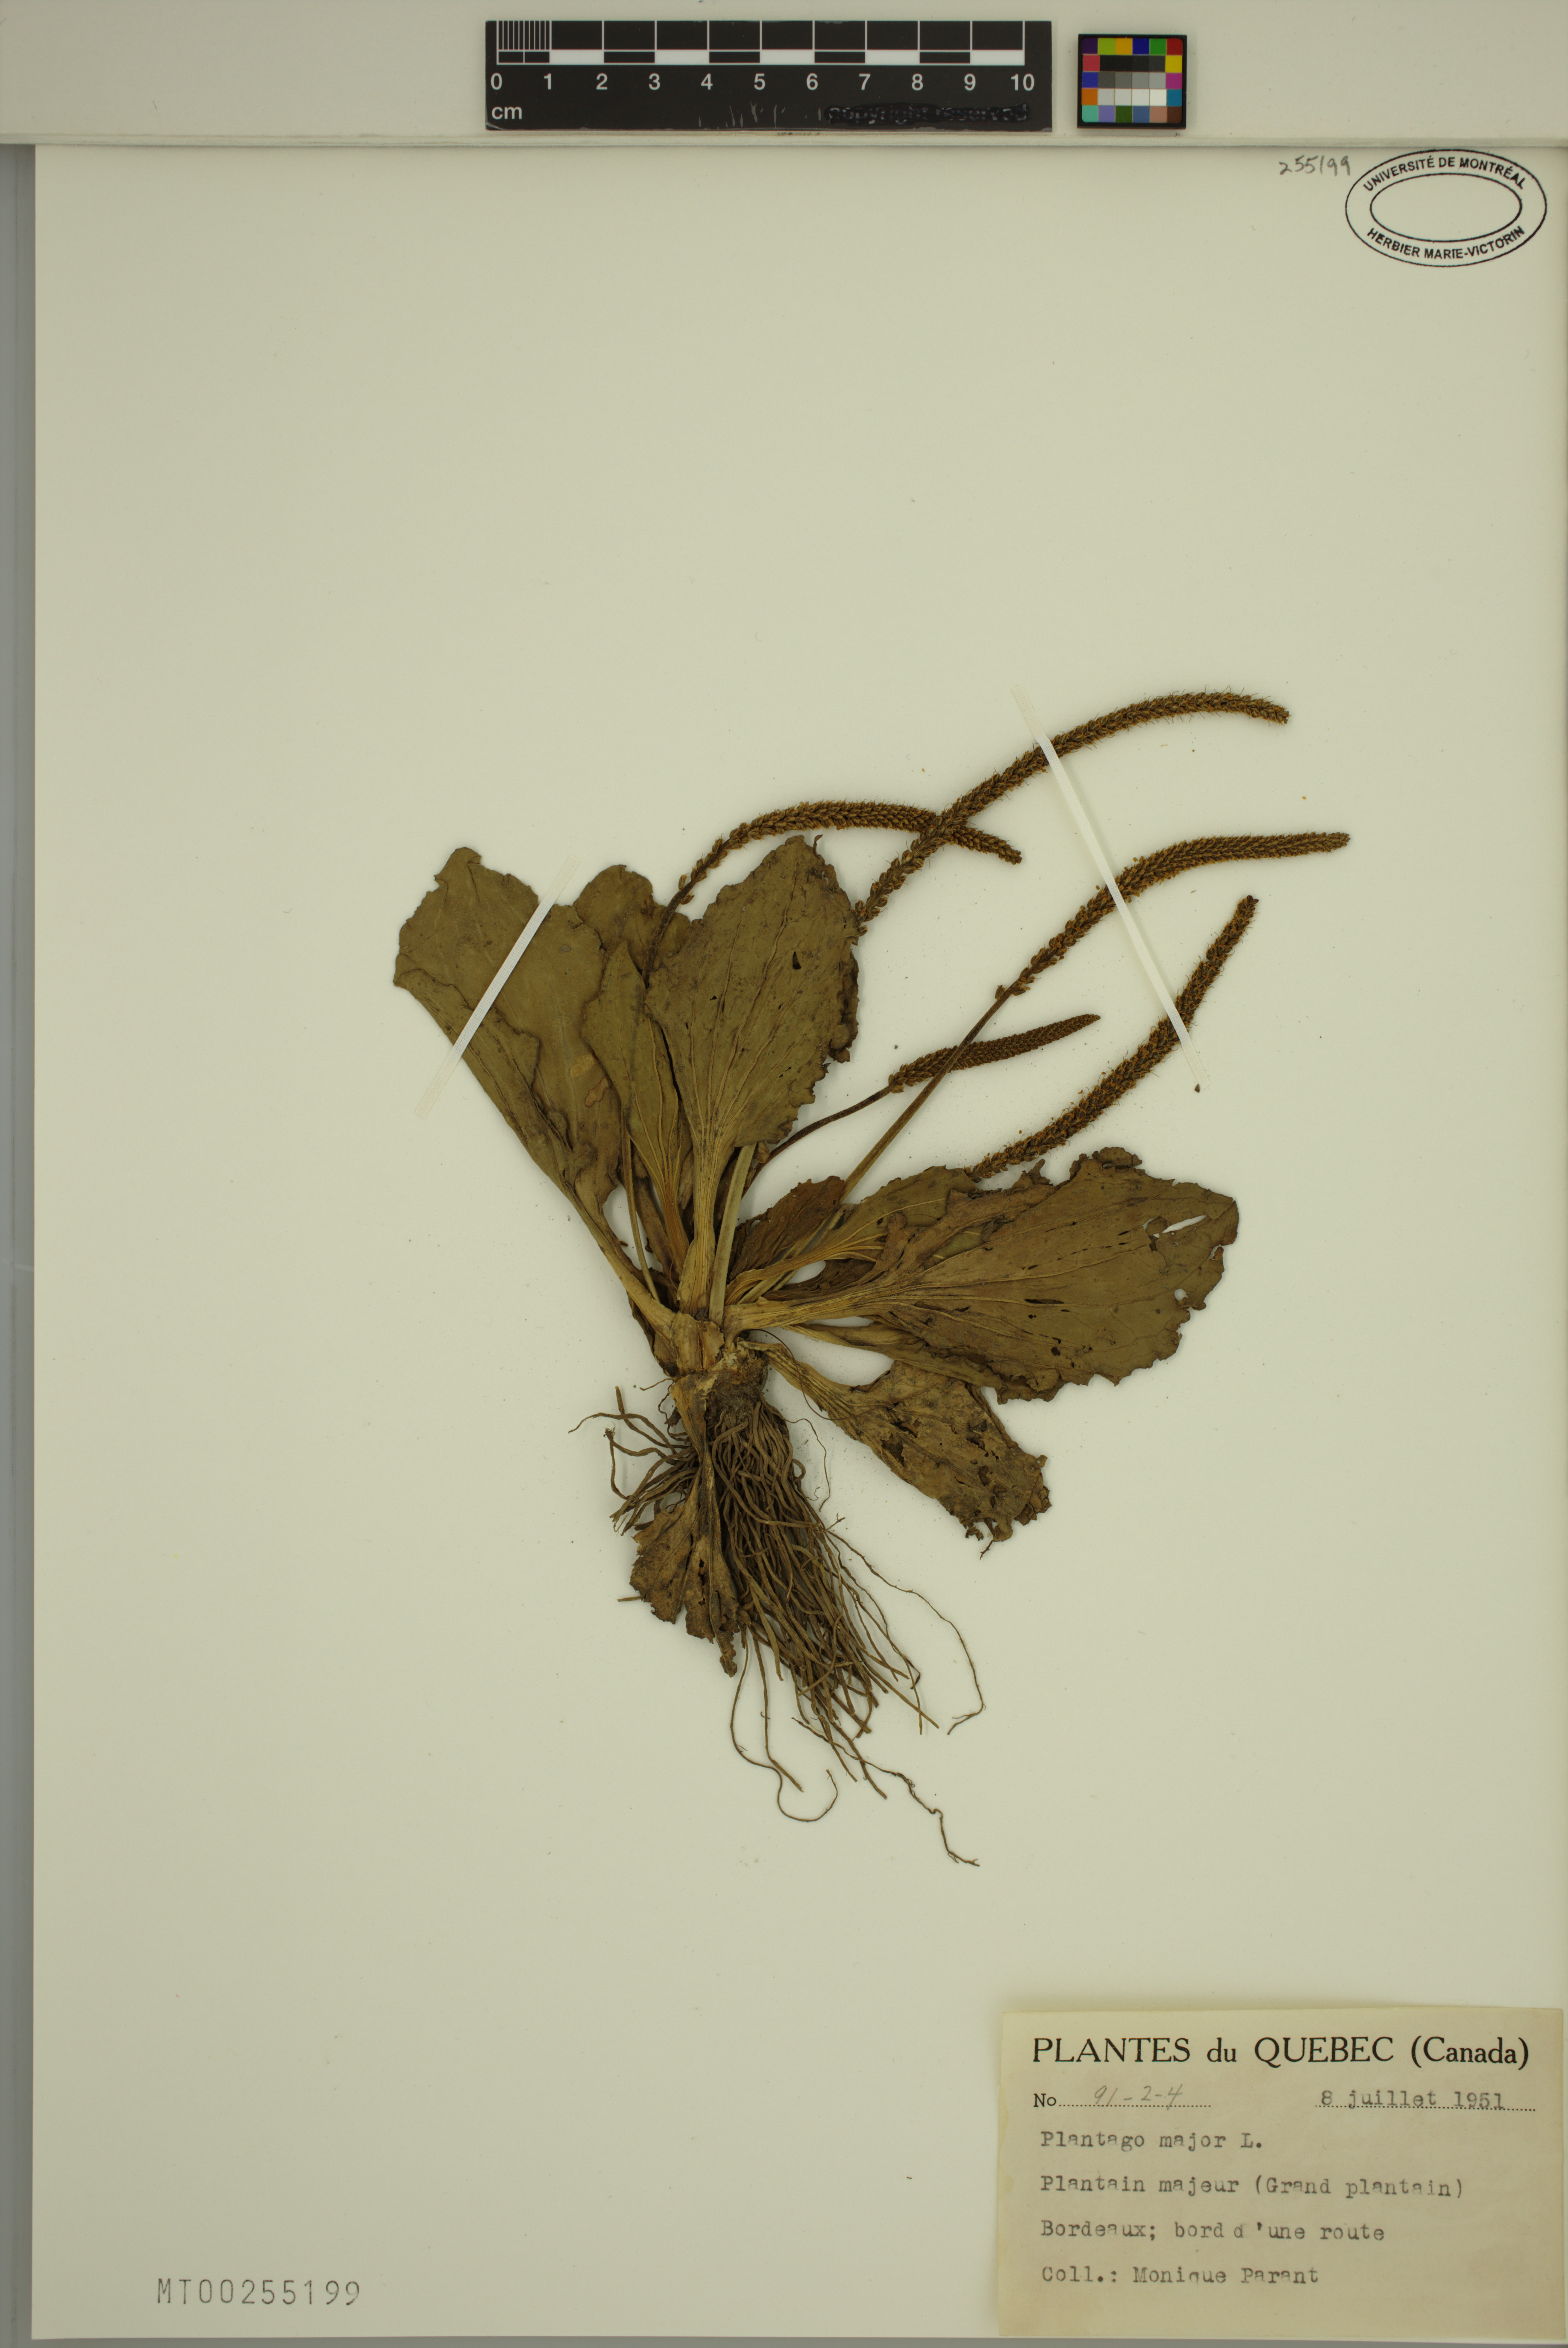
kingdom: Plantae
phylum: Tracheophyta
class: Magnoliopsida
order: Lamiales
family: Plantaginaceae
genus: Plantago
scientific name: Plantago major
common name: Common plantain
